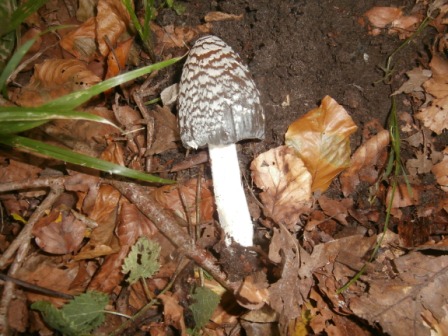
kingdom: Fungi
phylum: Basidiomycota
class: Agaricomycetes
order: Agaricales
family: Psathyrellaceae
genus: Coprinopsis
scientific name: Coprinopsis picacea
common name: skade-blækhat
